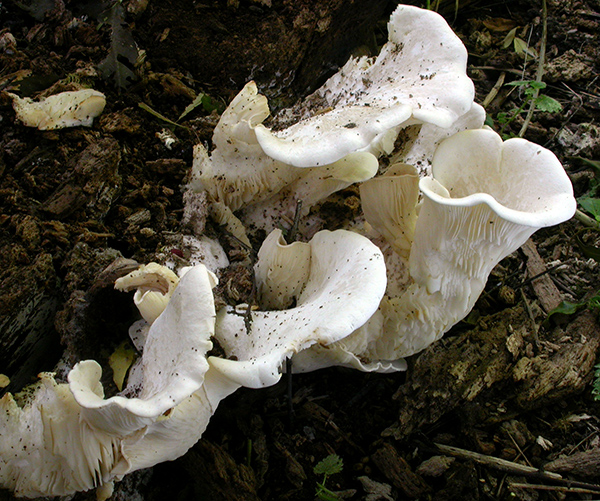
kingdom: Fungi
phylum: Basidiomycota
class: Agaricomycetes
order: Agaricales
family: Pleurotaceae
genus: Pleurotus
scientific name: Pleurotus dryinus
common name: korkagtig østershat
